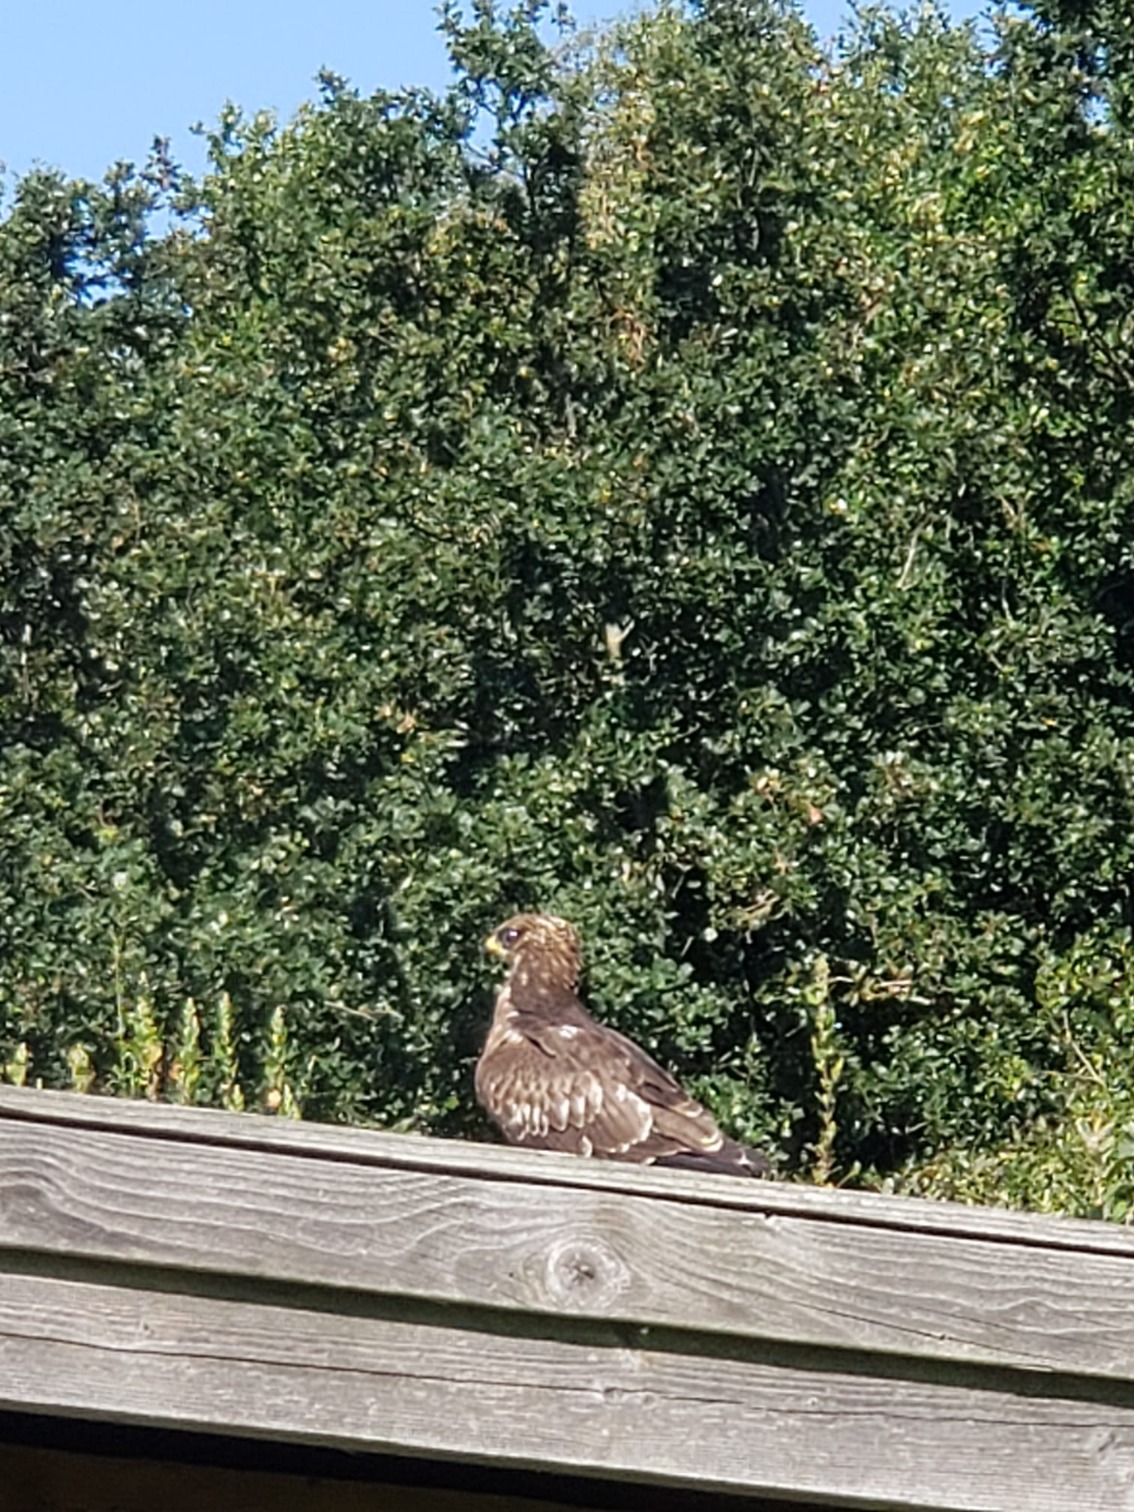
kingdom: Animalia
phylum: Chordata
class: Aves
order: Accipitriformes
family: Accipitridae
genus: Pernis
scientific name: Pernis apivorus
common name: Hvepsevåge
